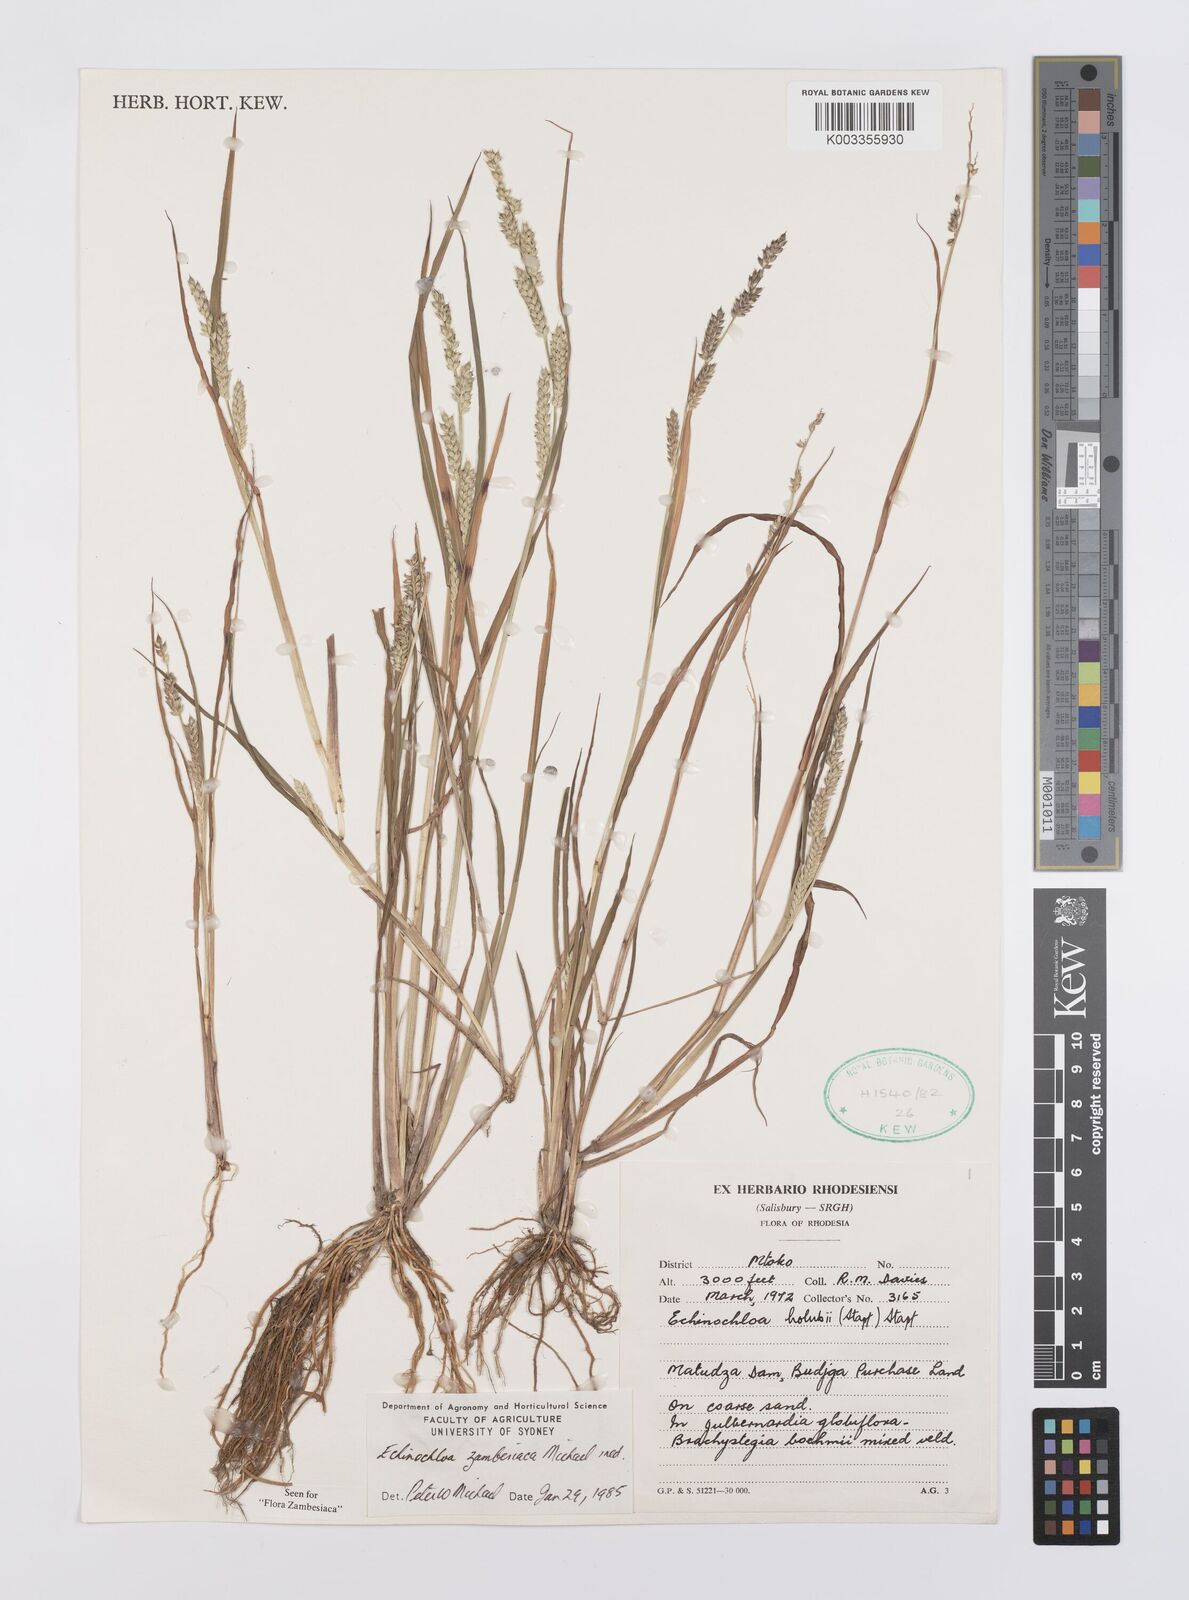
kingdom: Plantae
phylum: Tracheophyta
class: Liliopsida
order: Poales
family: Poaceae
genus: Echinochloa
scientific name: Echinochloa ugandensis
